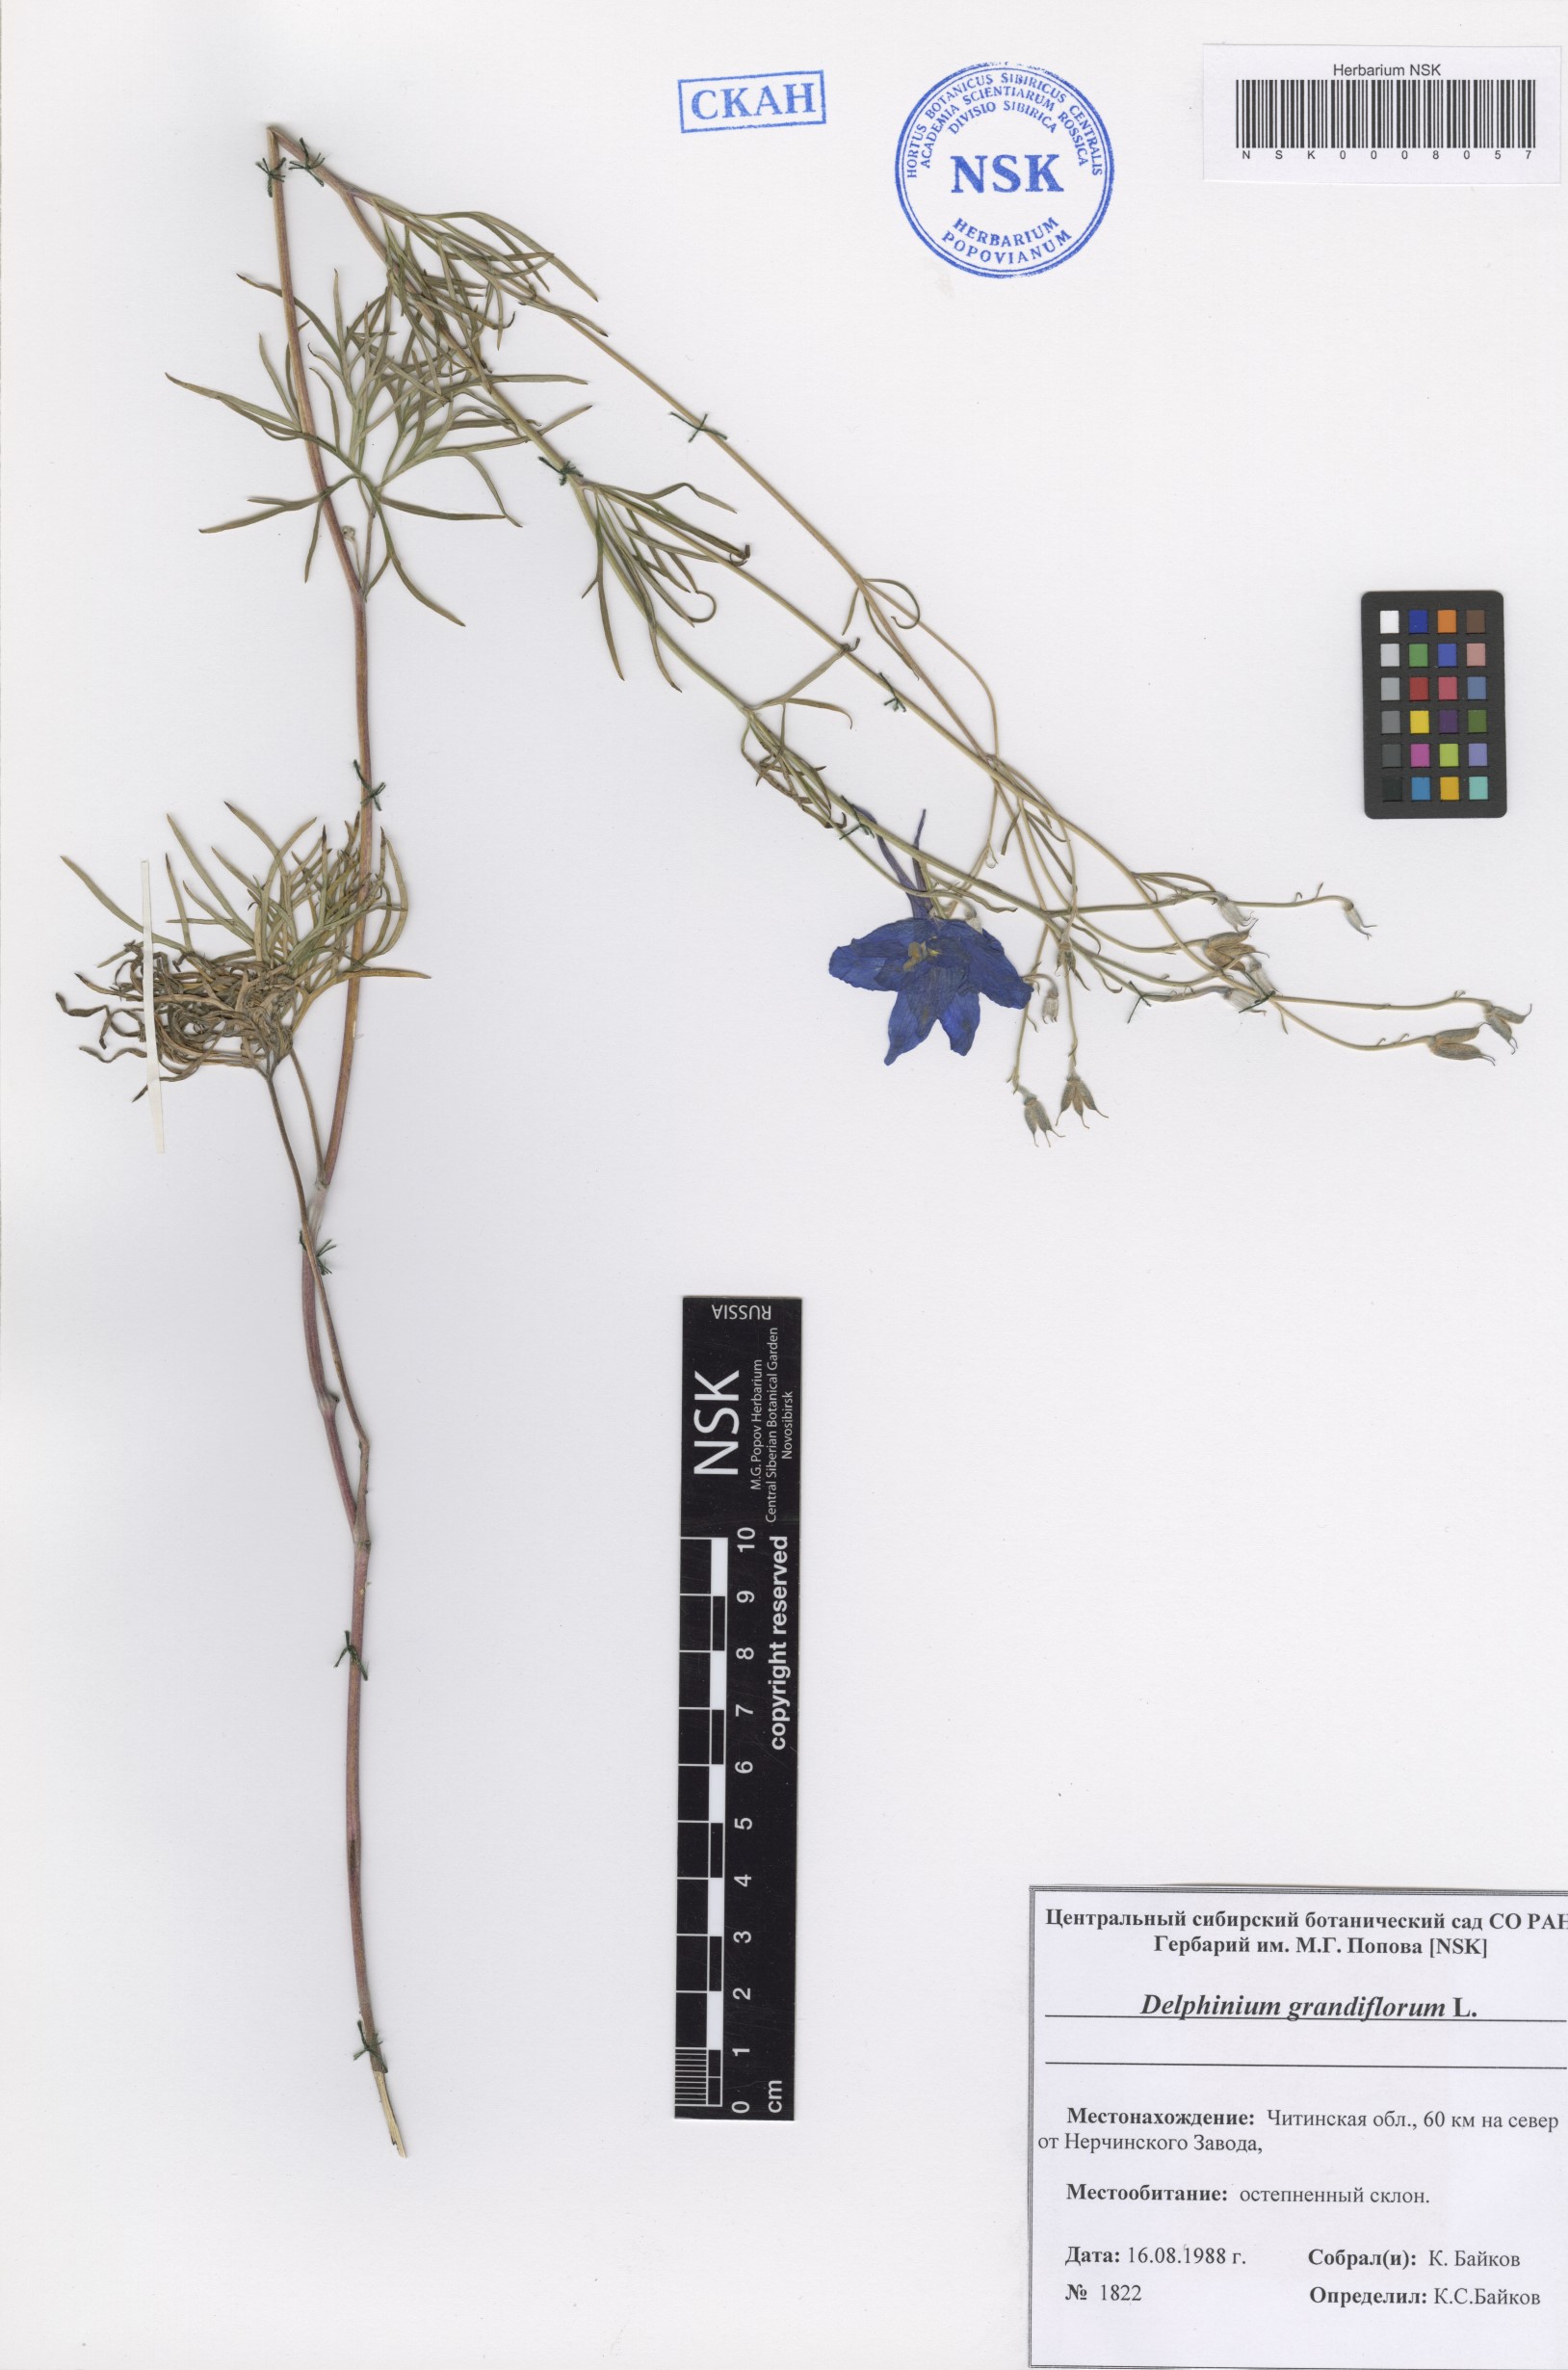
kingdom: Plantae
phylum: Tracheophyta
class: Magnoliopsida
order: Ranunculales
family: Ranunculaceae
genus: Delphinium
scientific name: Delphinium grandiflorum
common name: Siberian larkspur
